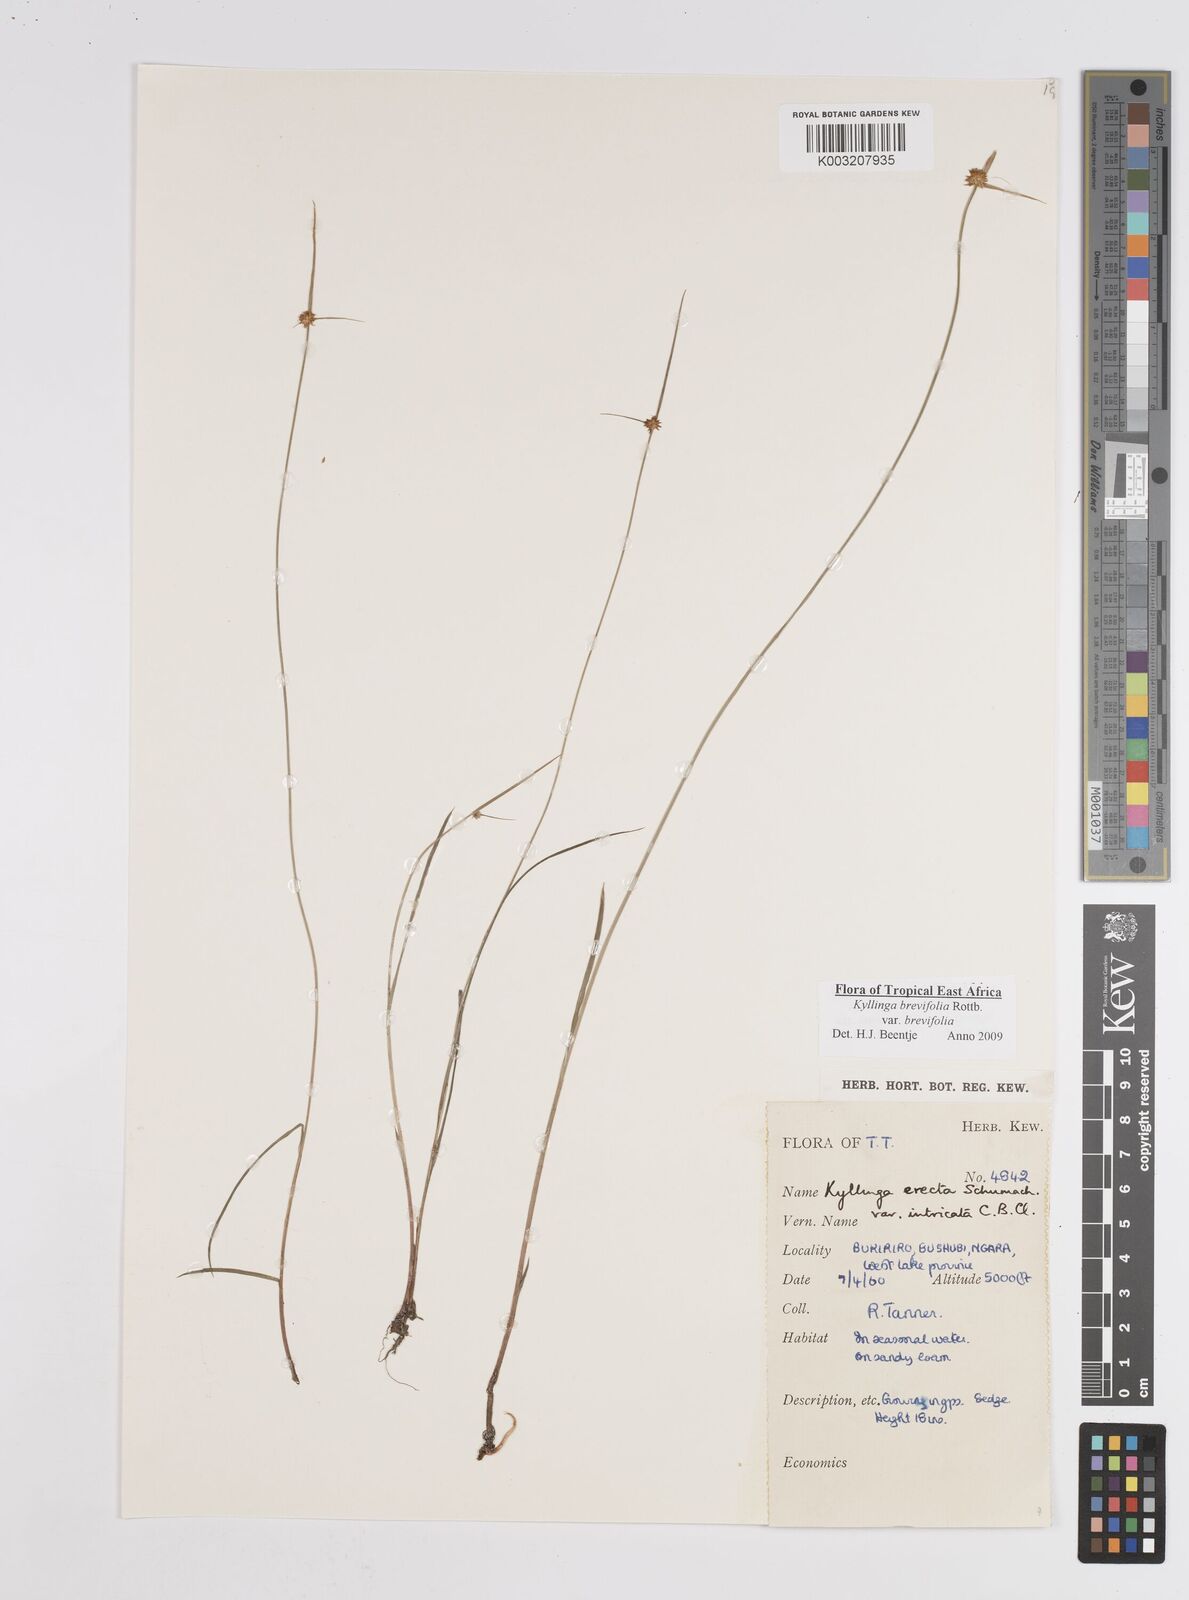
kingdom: Plantae
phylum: Tracheophyta
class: Liliopsida
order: Poales
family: Cyperaceae
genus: Cyperus
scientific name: Cyperus brevifolius
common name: Globe kyllinga
